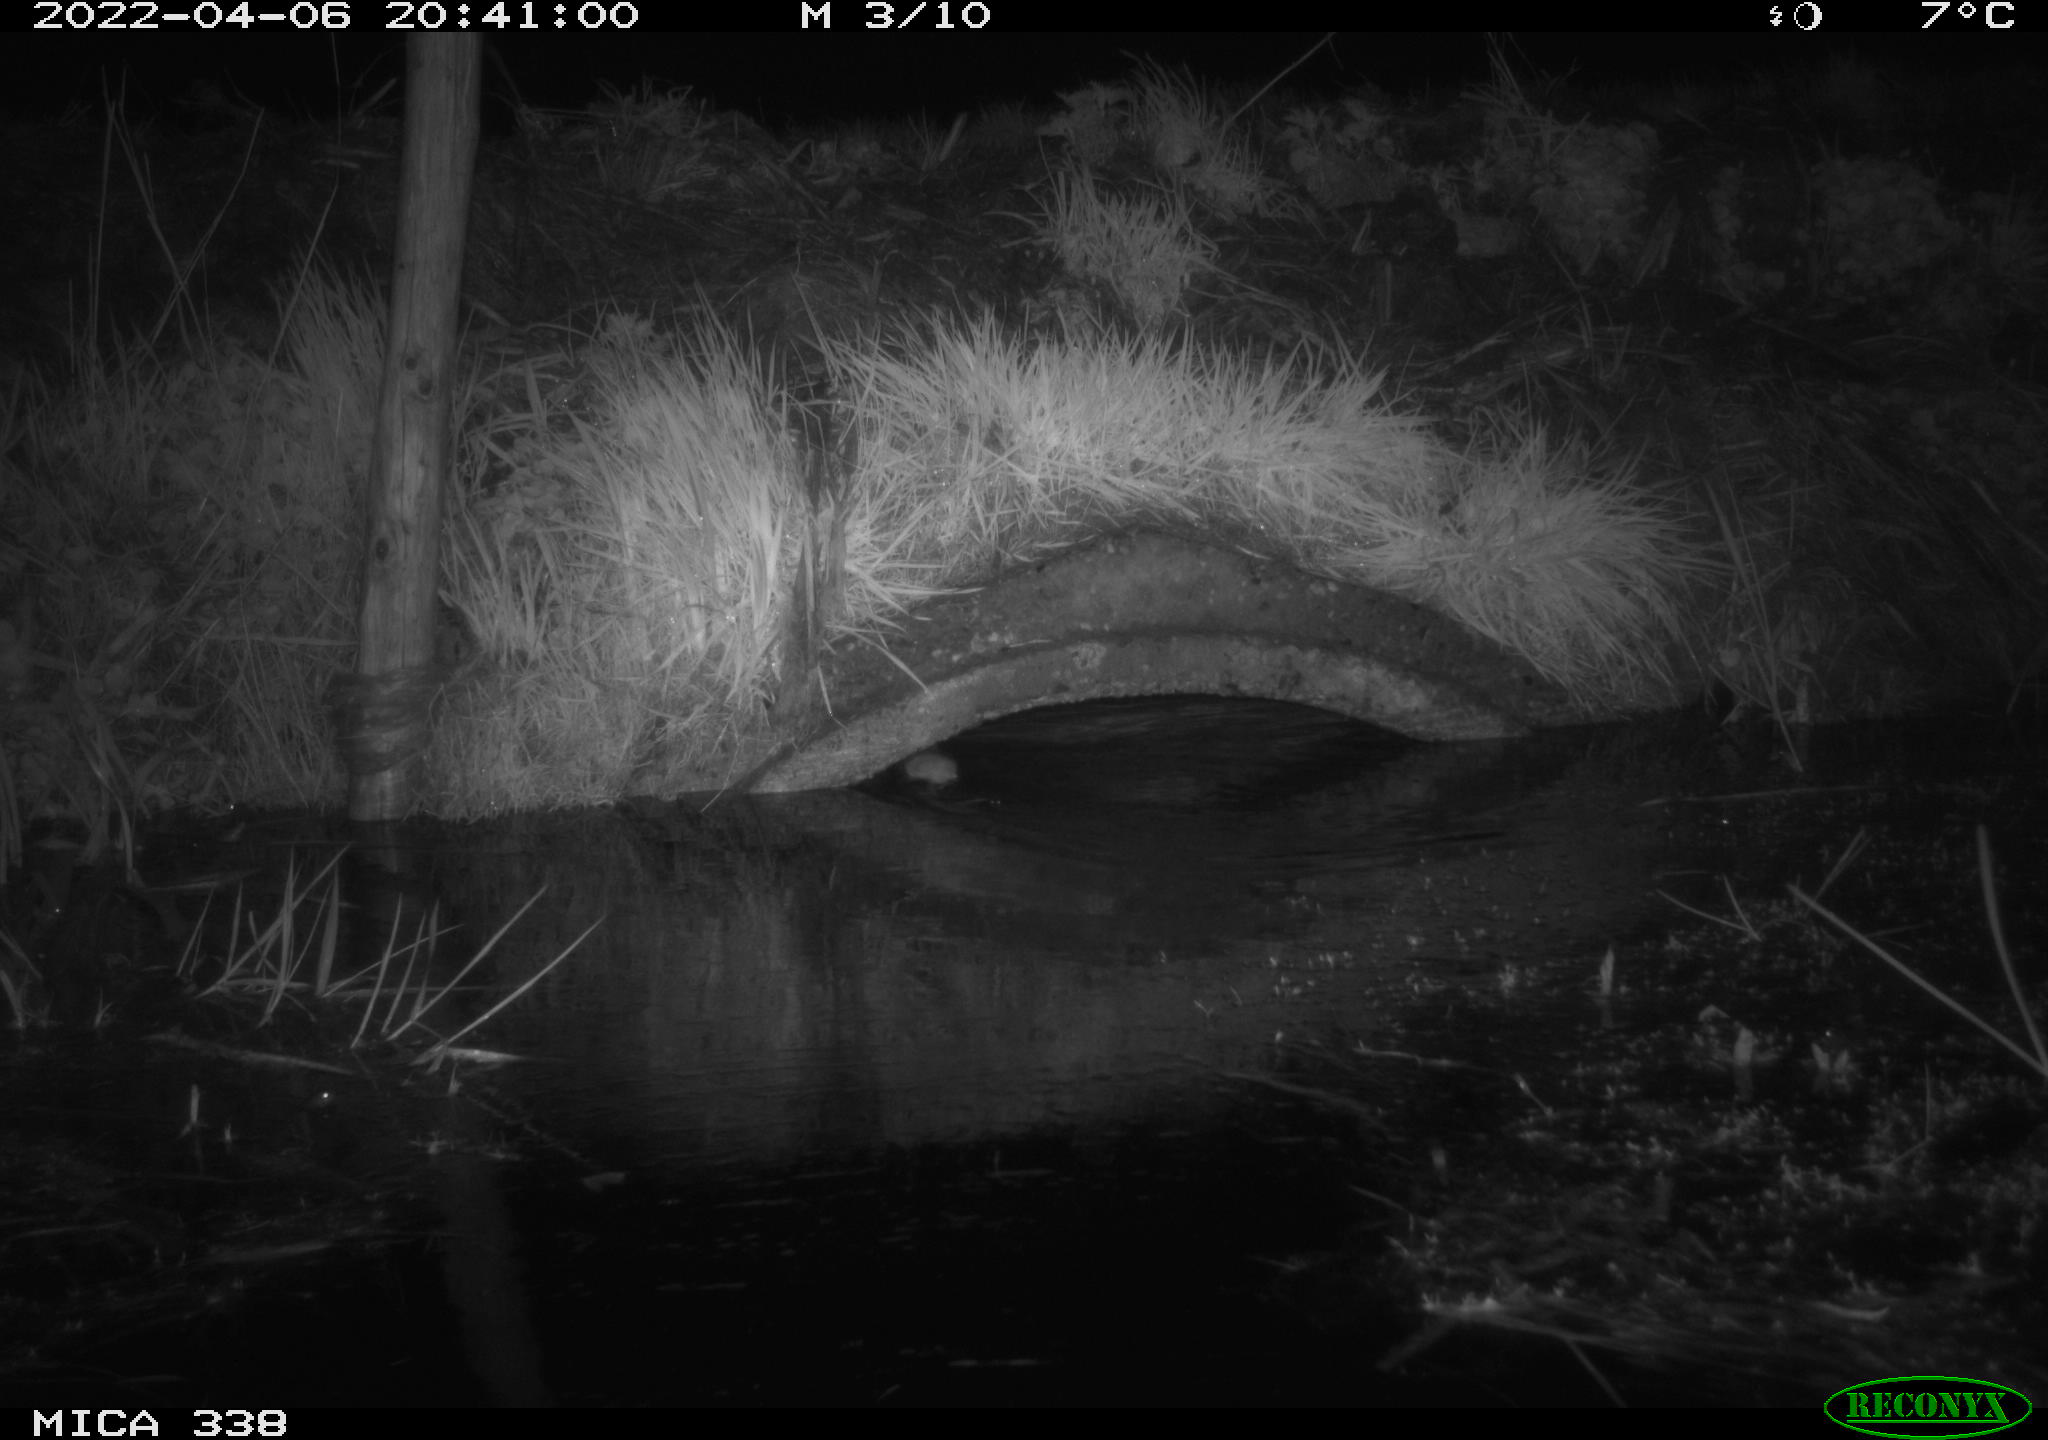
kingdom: Animalia
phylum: Chordata
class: Mammalia
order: Rodentia
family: Muridae
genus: Rattus
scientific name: Rattus norvegicus
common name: Brown rat
